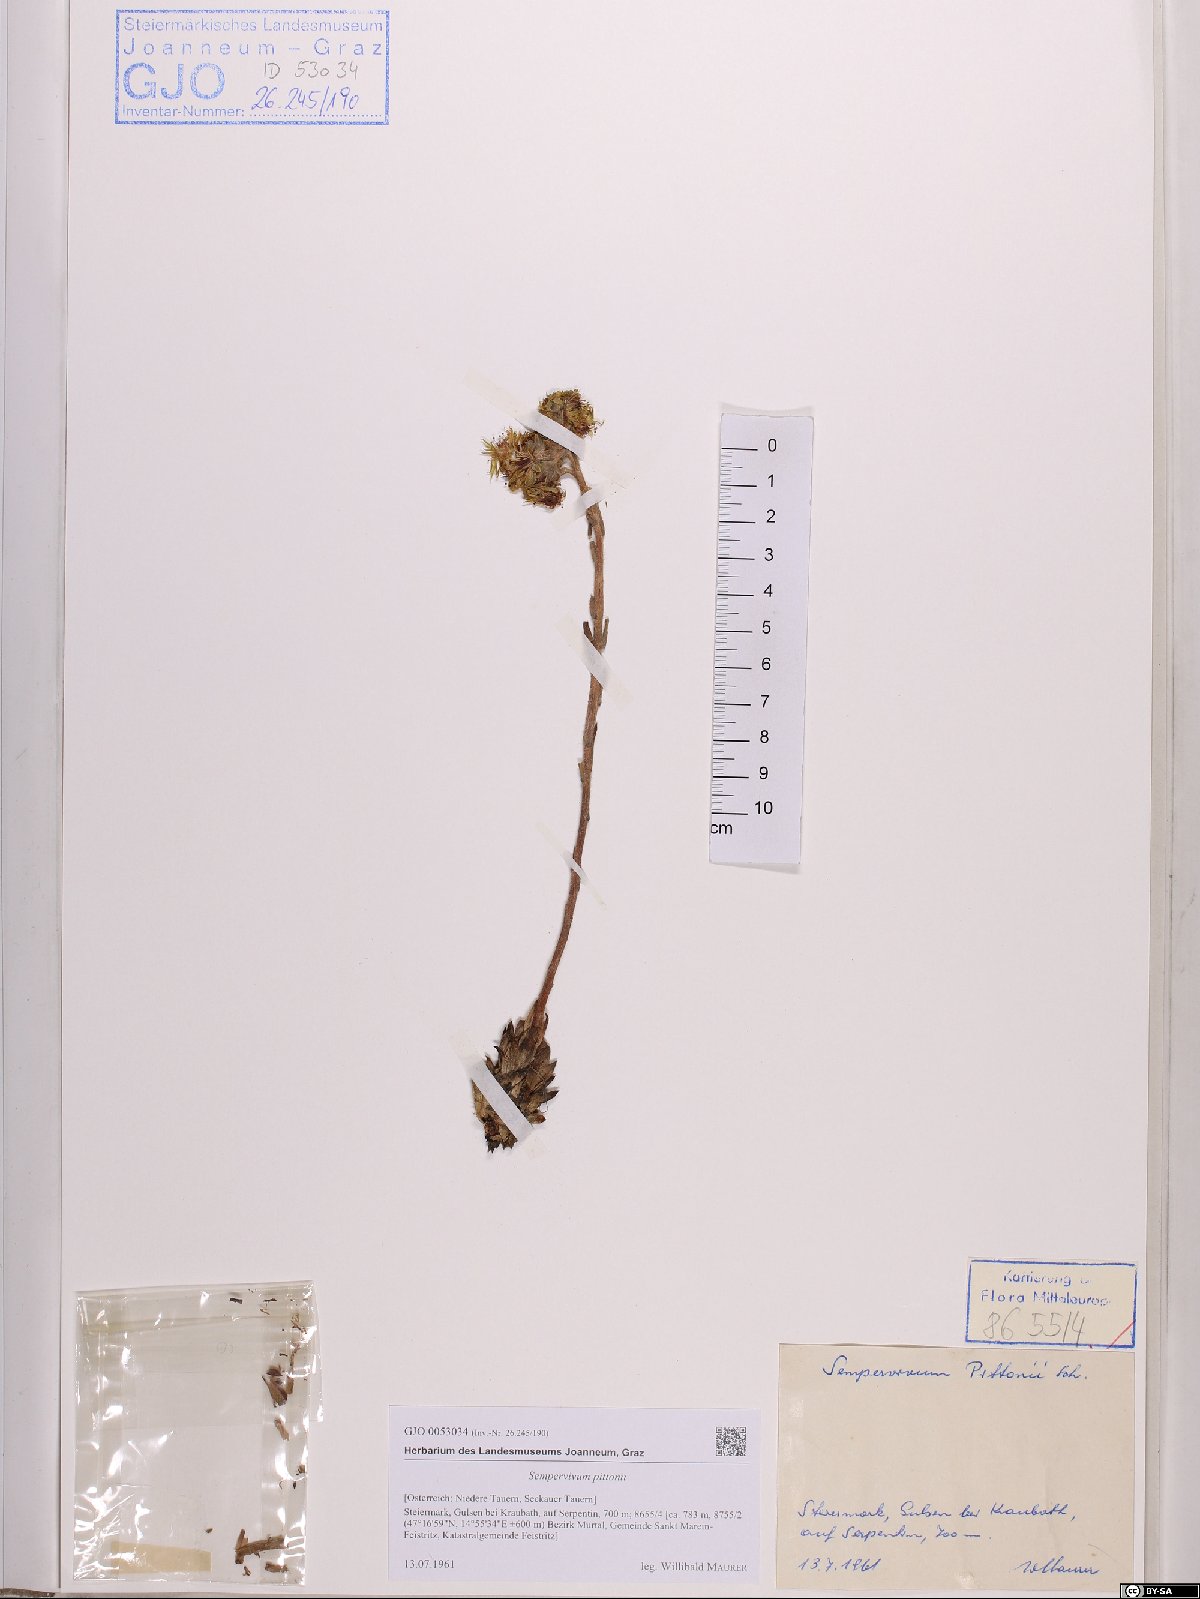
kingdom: Plantae
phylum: Tracheophyta
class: Magnoliopsida
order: Saxifragales
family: Crassulaceae
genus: Sempervivum
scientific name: Sempervivum pittonii
